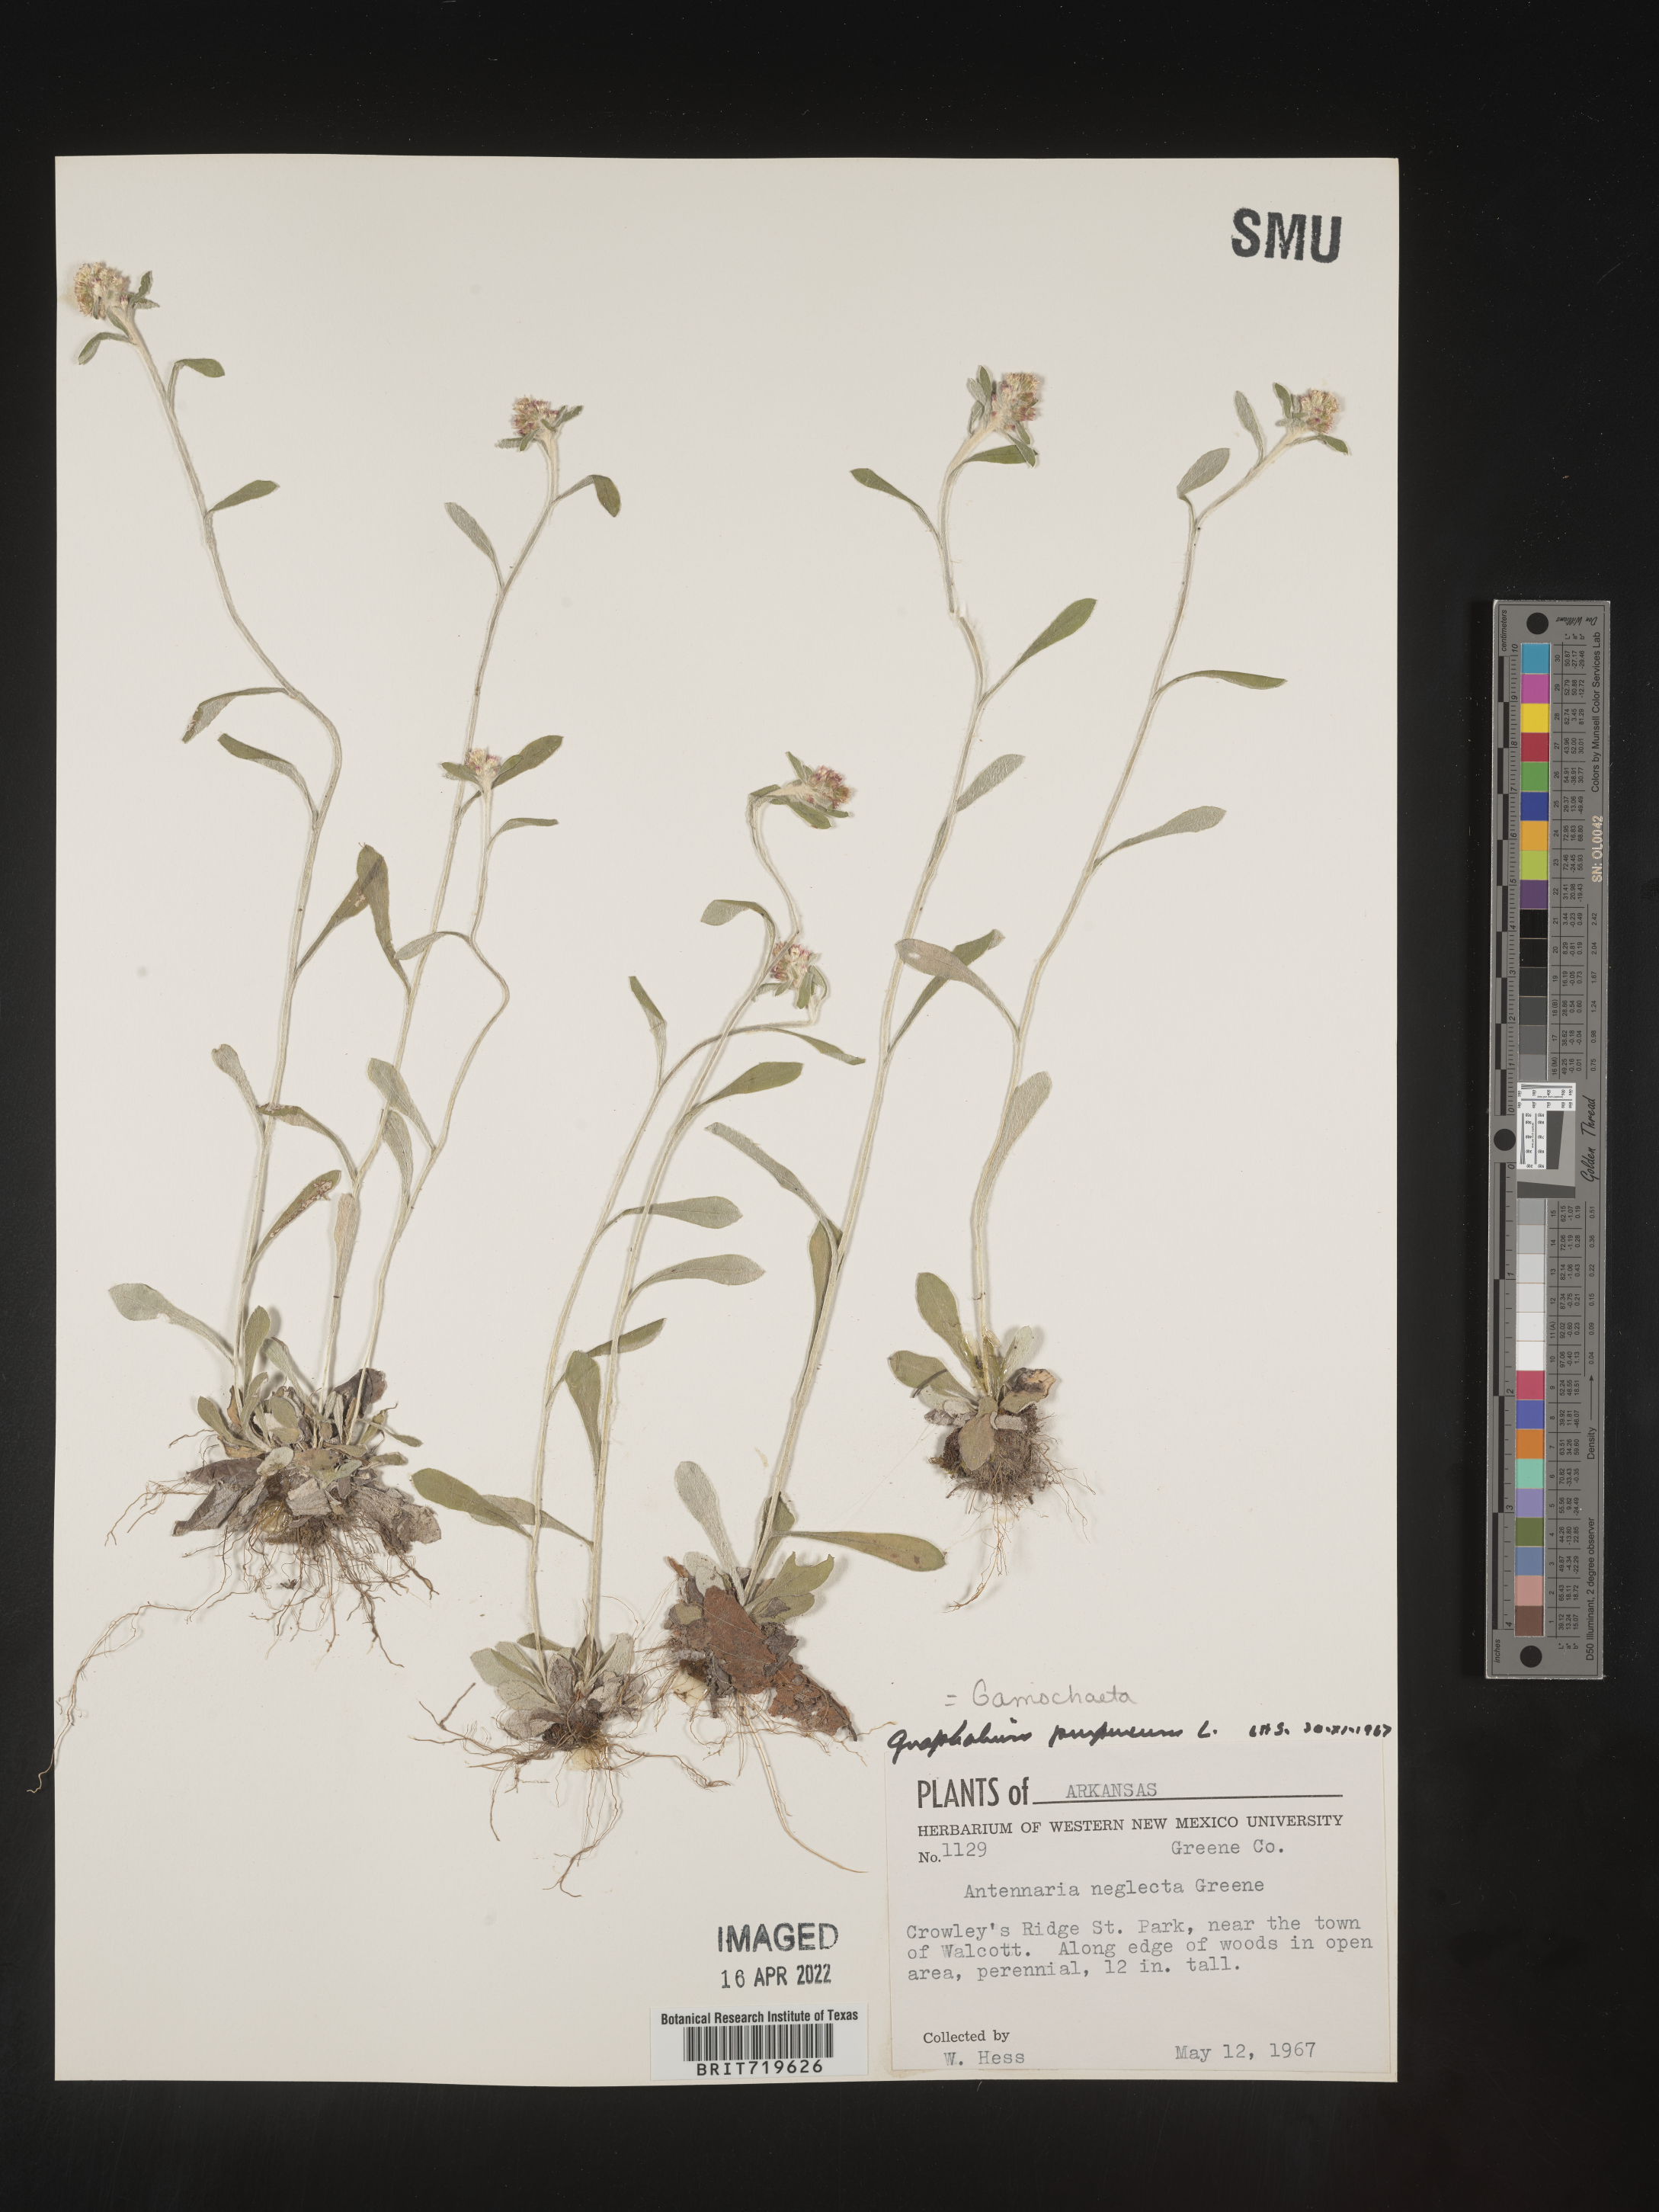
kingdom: Plantae
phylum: Tracheophyta
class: Magnoliopsida
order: Asterales
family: Asteraceae
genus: Gamochaeta
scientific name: Gamochaeta purpurea
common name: Purple cudweed
